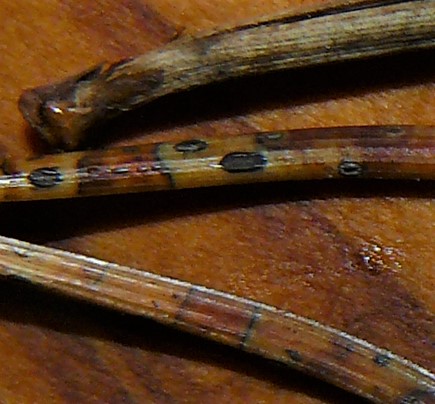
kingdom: Fungi
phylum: Ascomycota
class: Leotiomycetes
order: Rhytismatales
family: Rhytismataceae
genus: Lophodermium
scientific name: Lophodermium pinastri
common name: fyrre-fureplet
